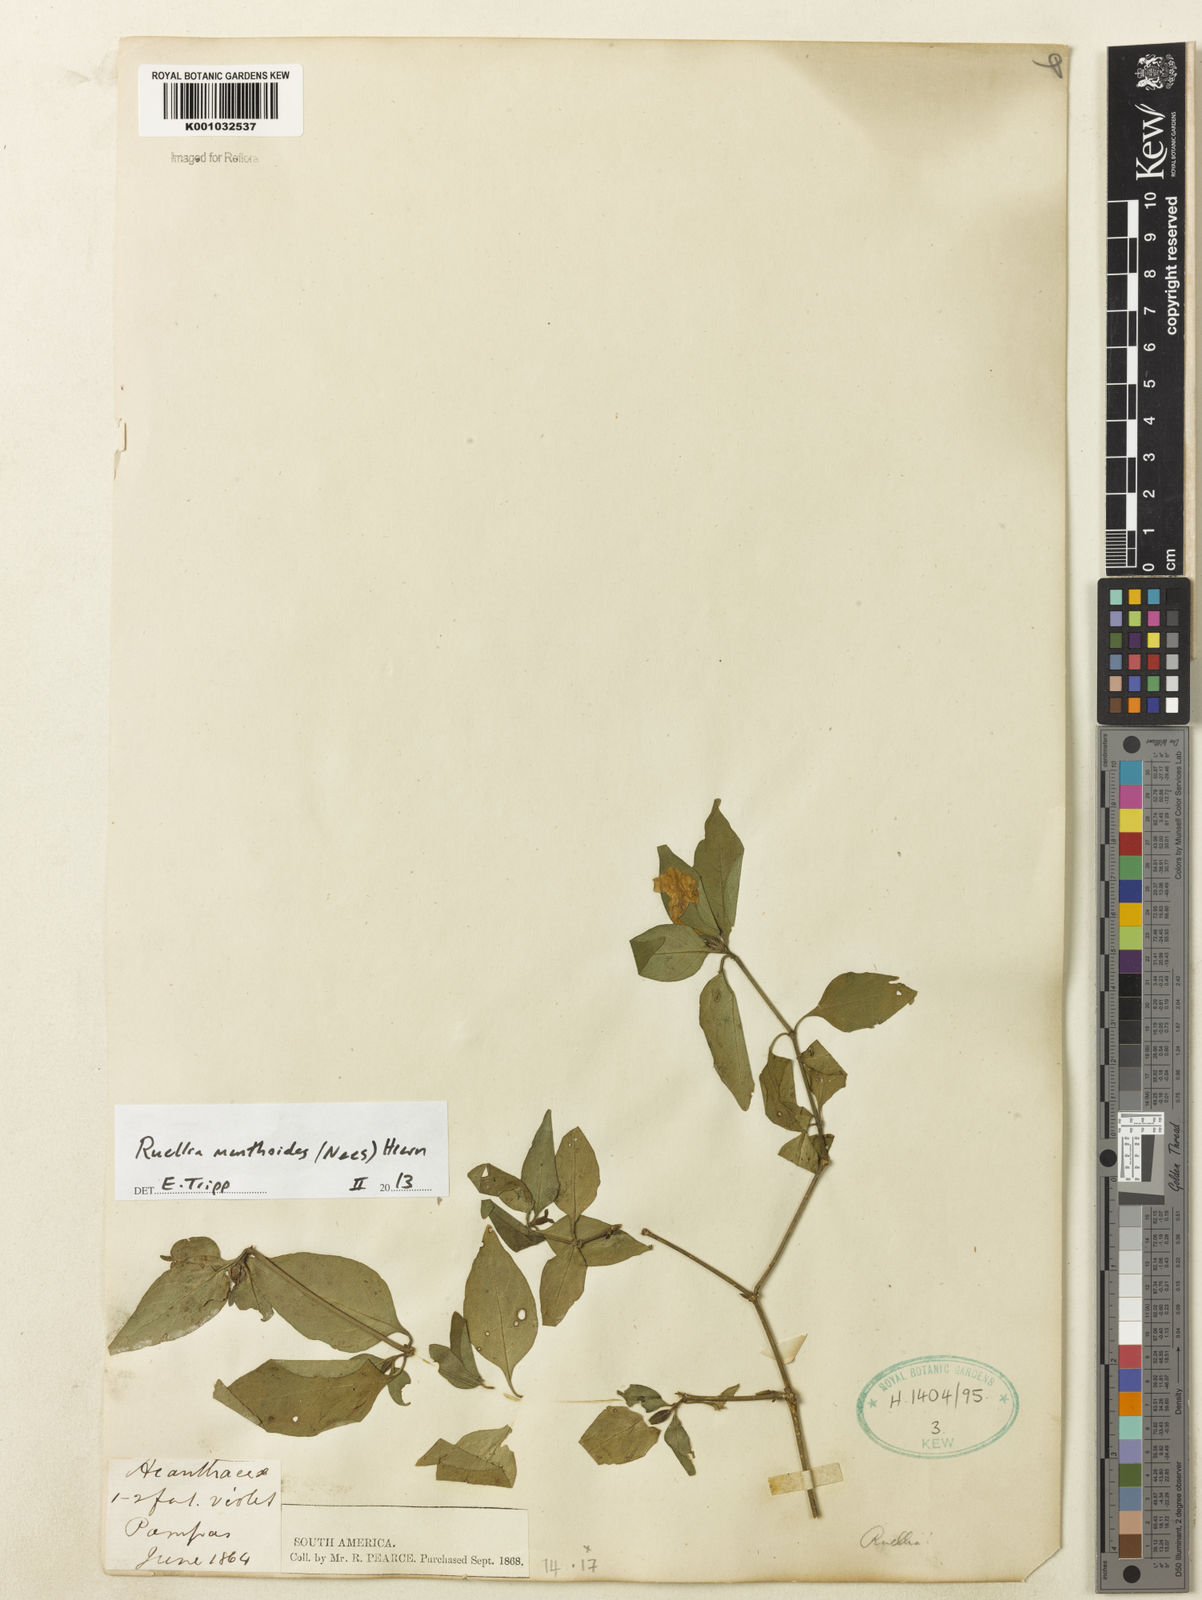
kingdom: Plantae
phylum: Tracheophyta
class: Magnoliopsida
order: Lamiales
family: Acanthaceae
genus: Ruellia
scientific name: Ruellia menthoides
